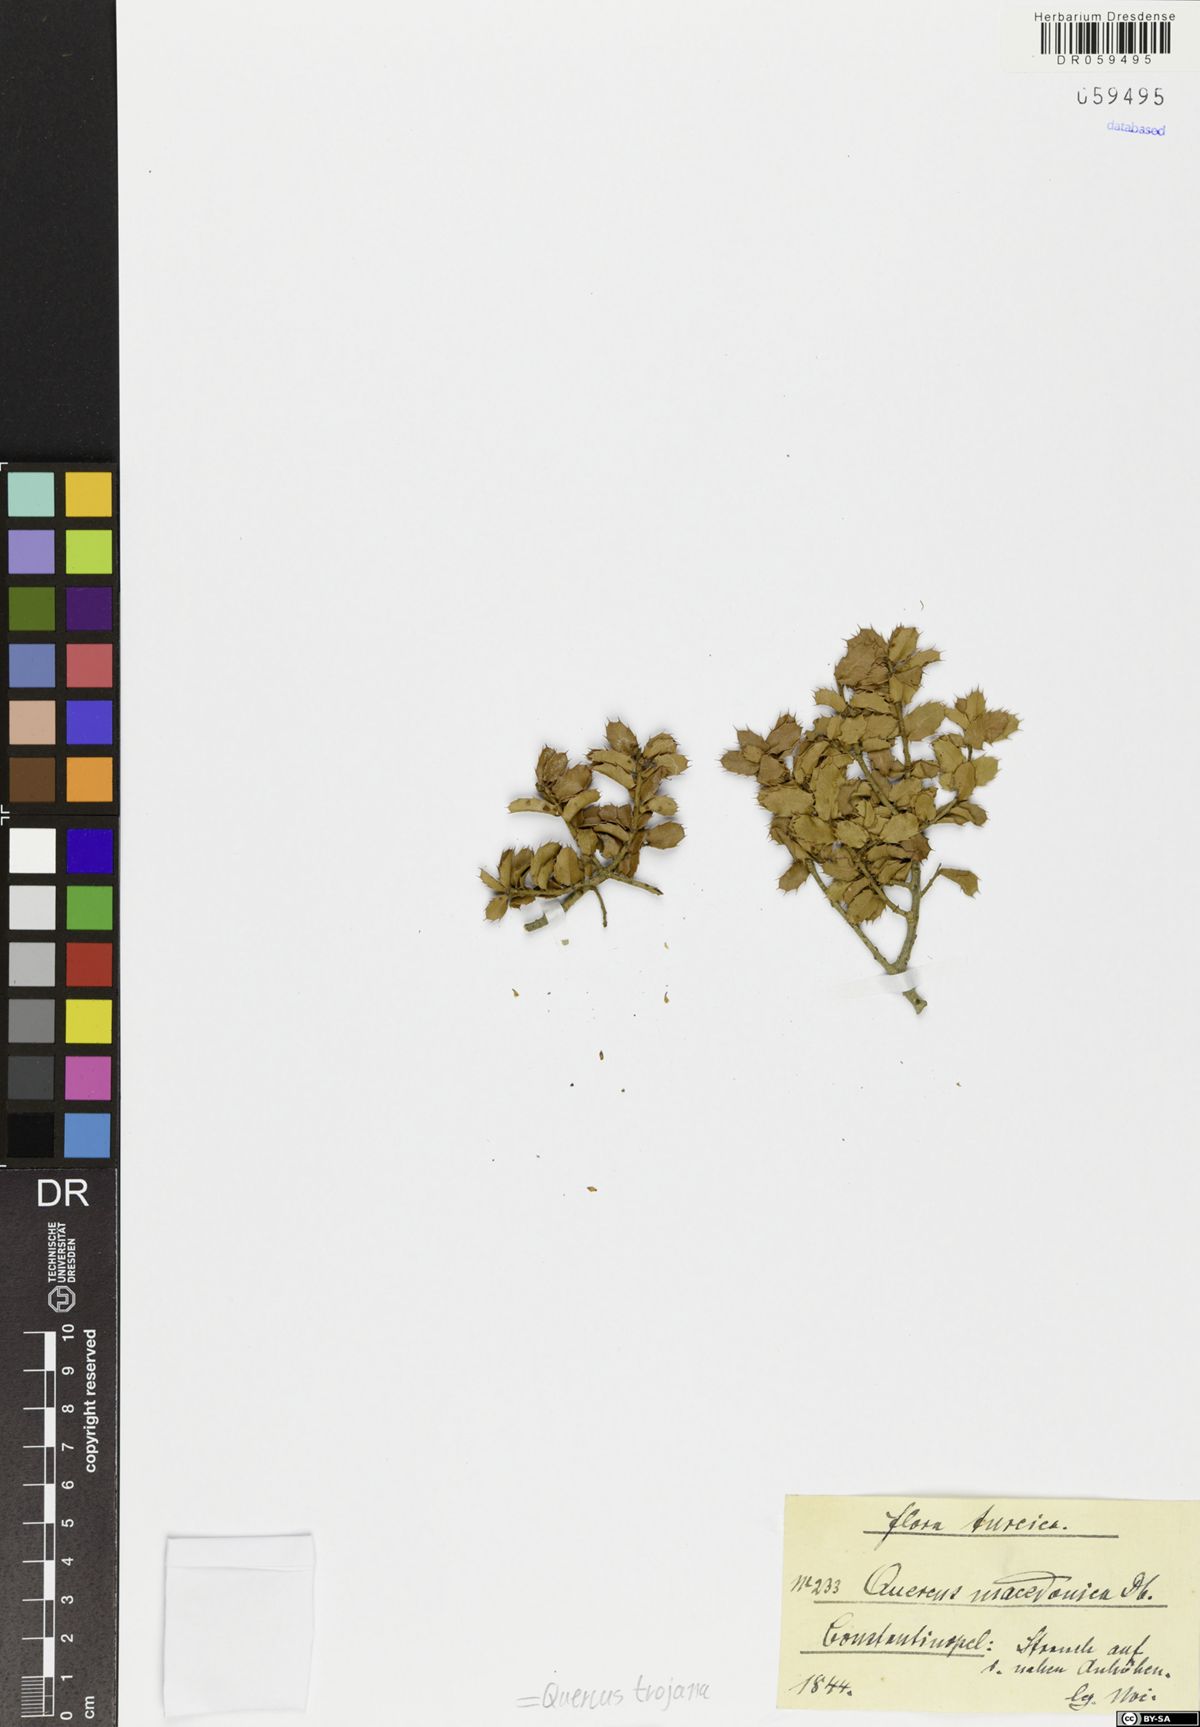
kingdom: Plantae
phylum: Tracheophyta
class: Magnoliopsida
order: Fagales
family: Fagaceae
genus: Quercus
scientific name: Quercus trojana
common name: Macedonian oak
